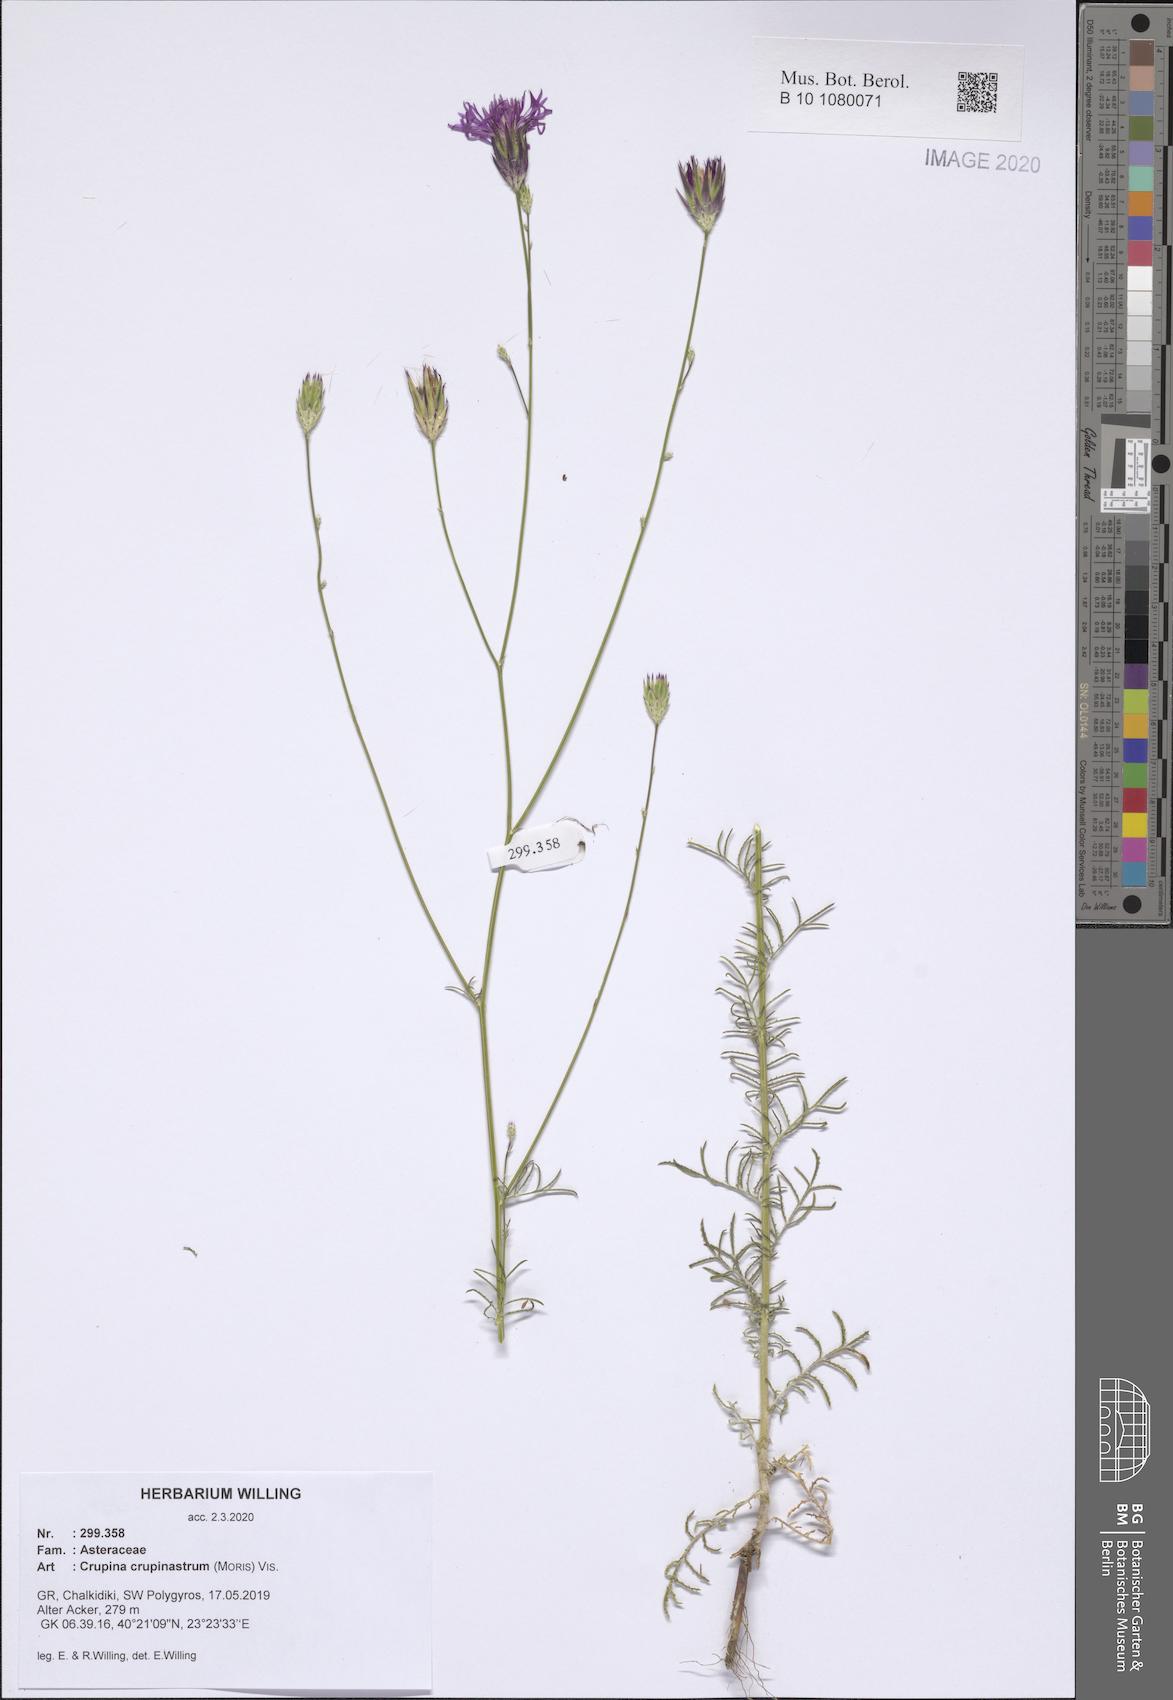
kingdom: Plantae
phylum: Tracheophyta
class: Magnoliopsida
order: Asterales
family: Asteraceae
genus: Crupina
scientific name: Crupina crupinastrum
